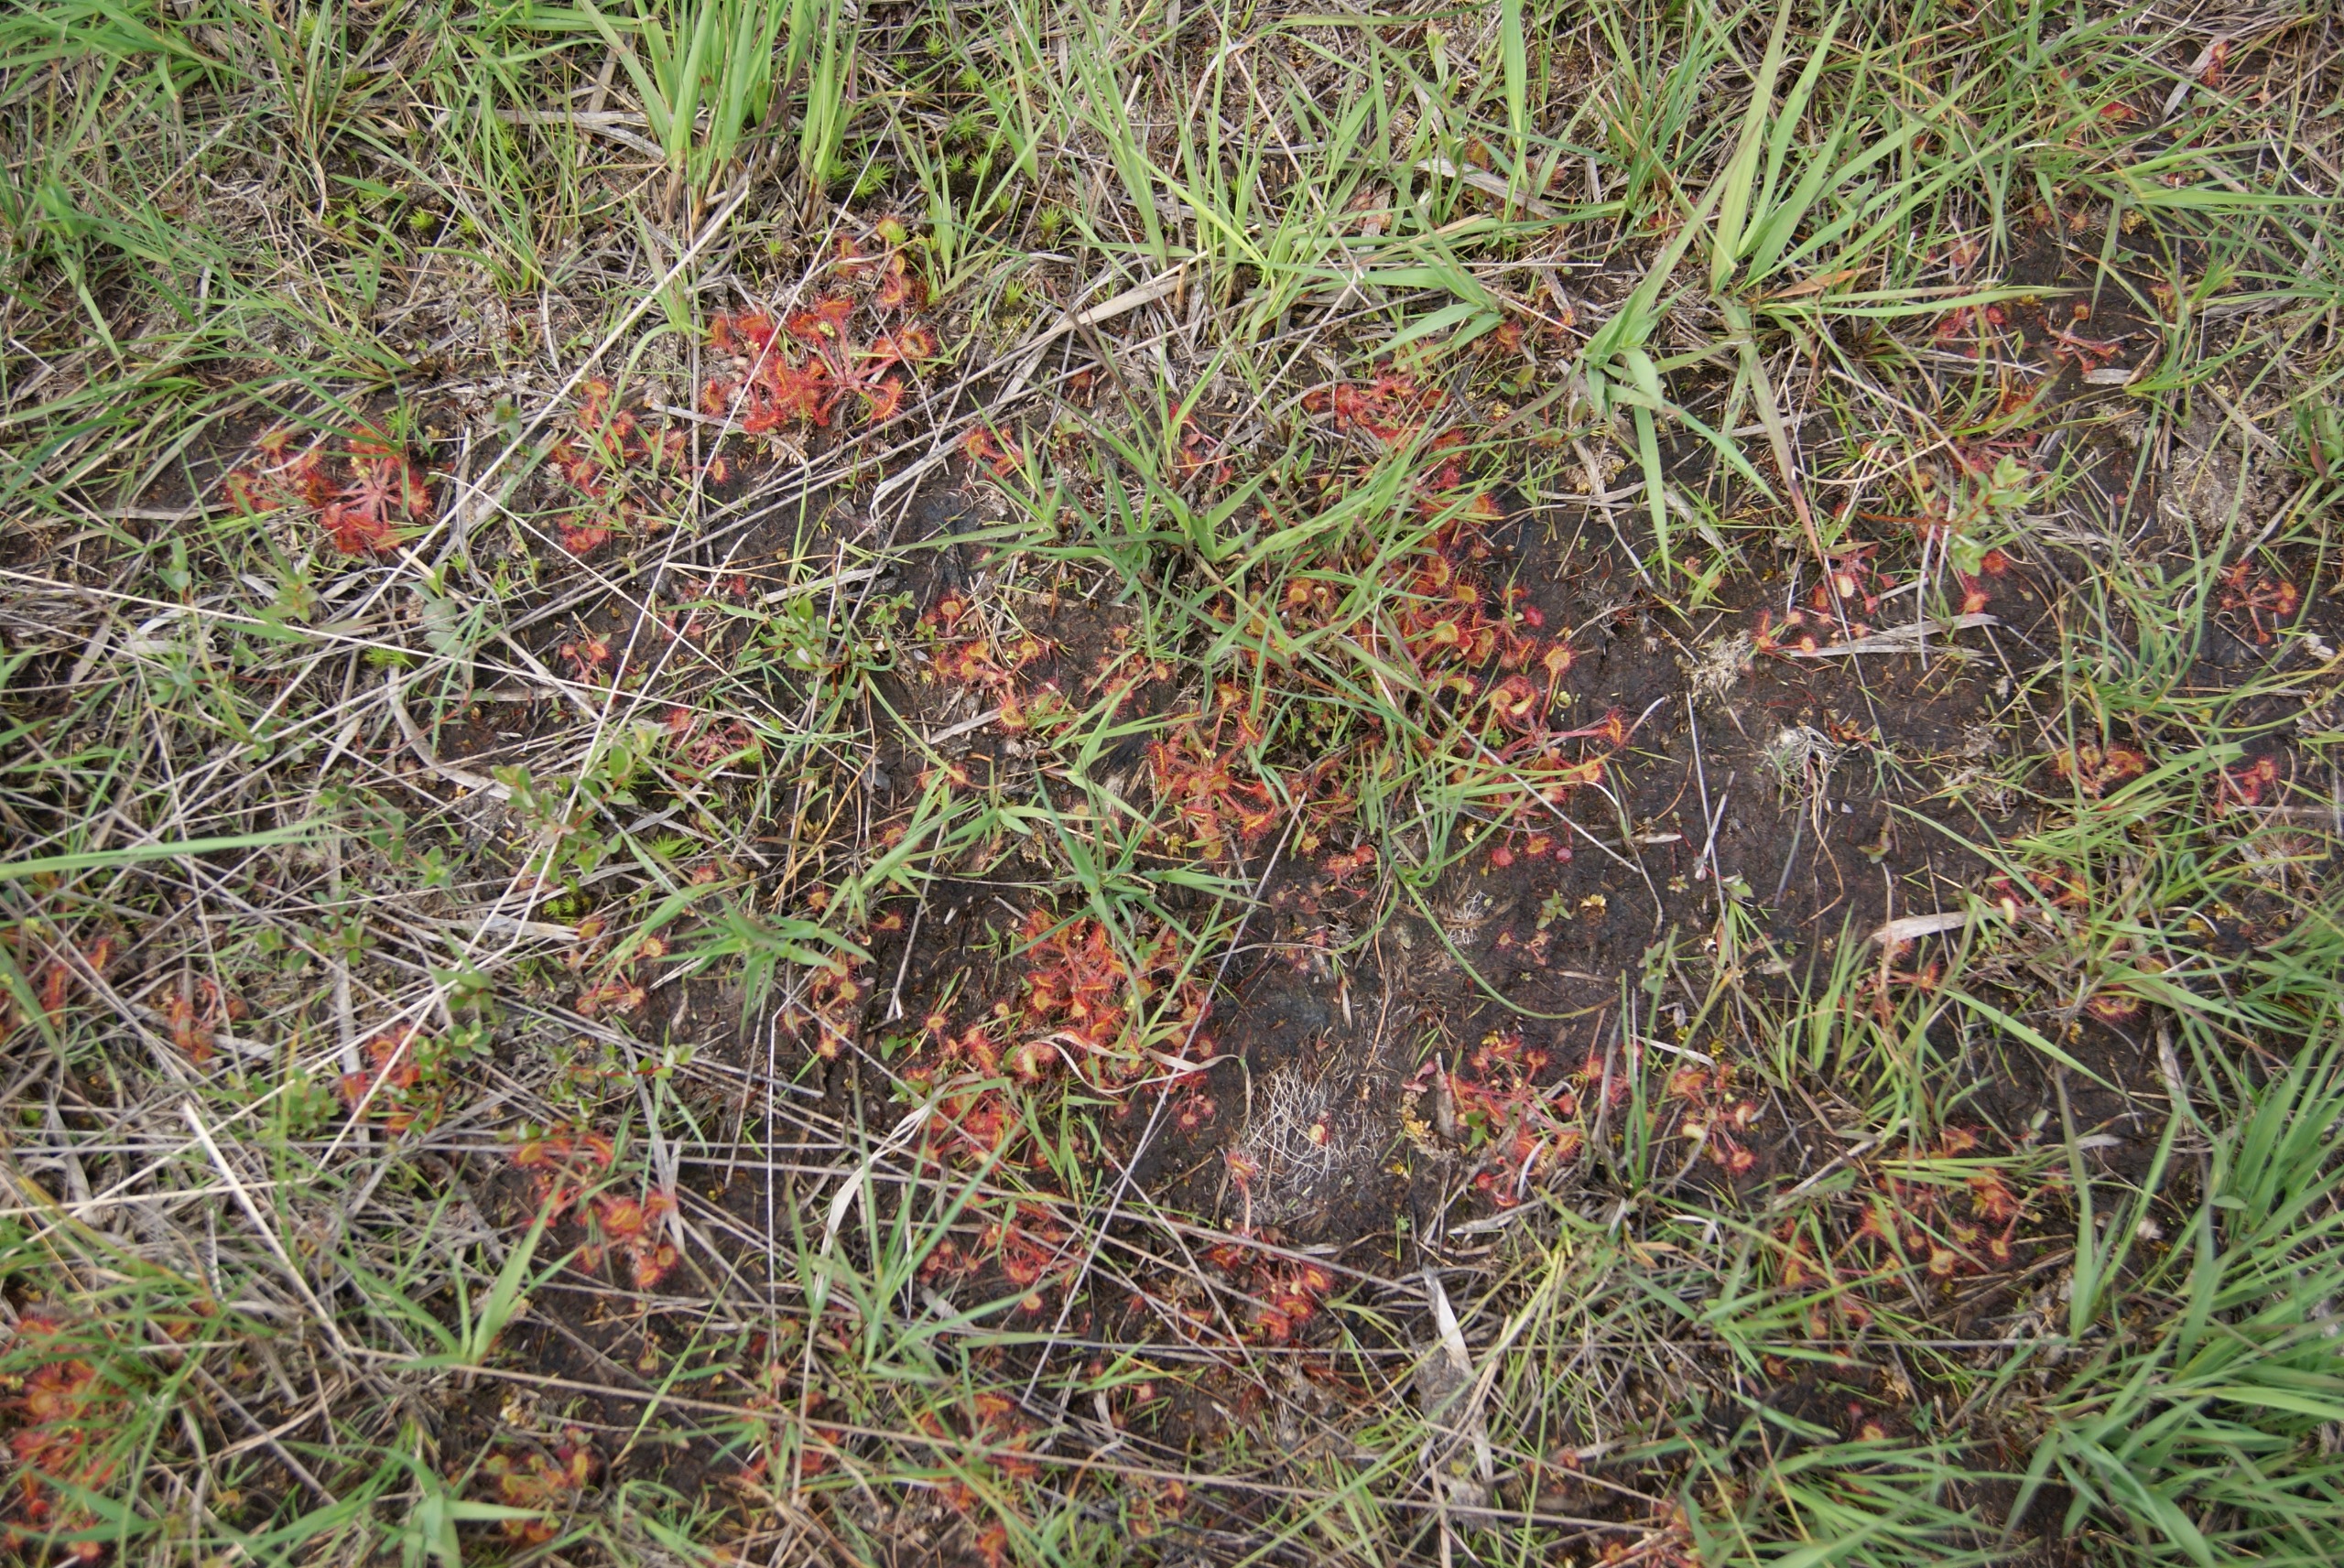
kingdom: Plantae
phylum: Tracheophyta
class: Magnoliopsida
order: Caryophyllales
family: Droseraceae
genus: Drosera
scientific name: Drosera rotundifolia
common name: Rundbladet soldug
